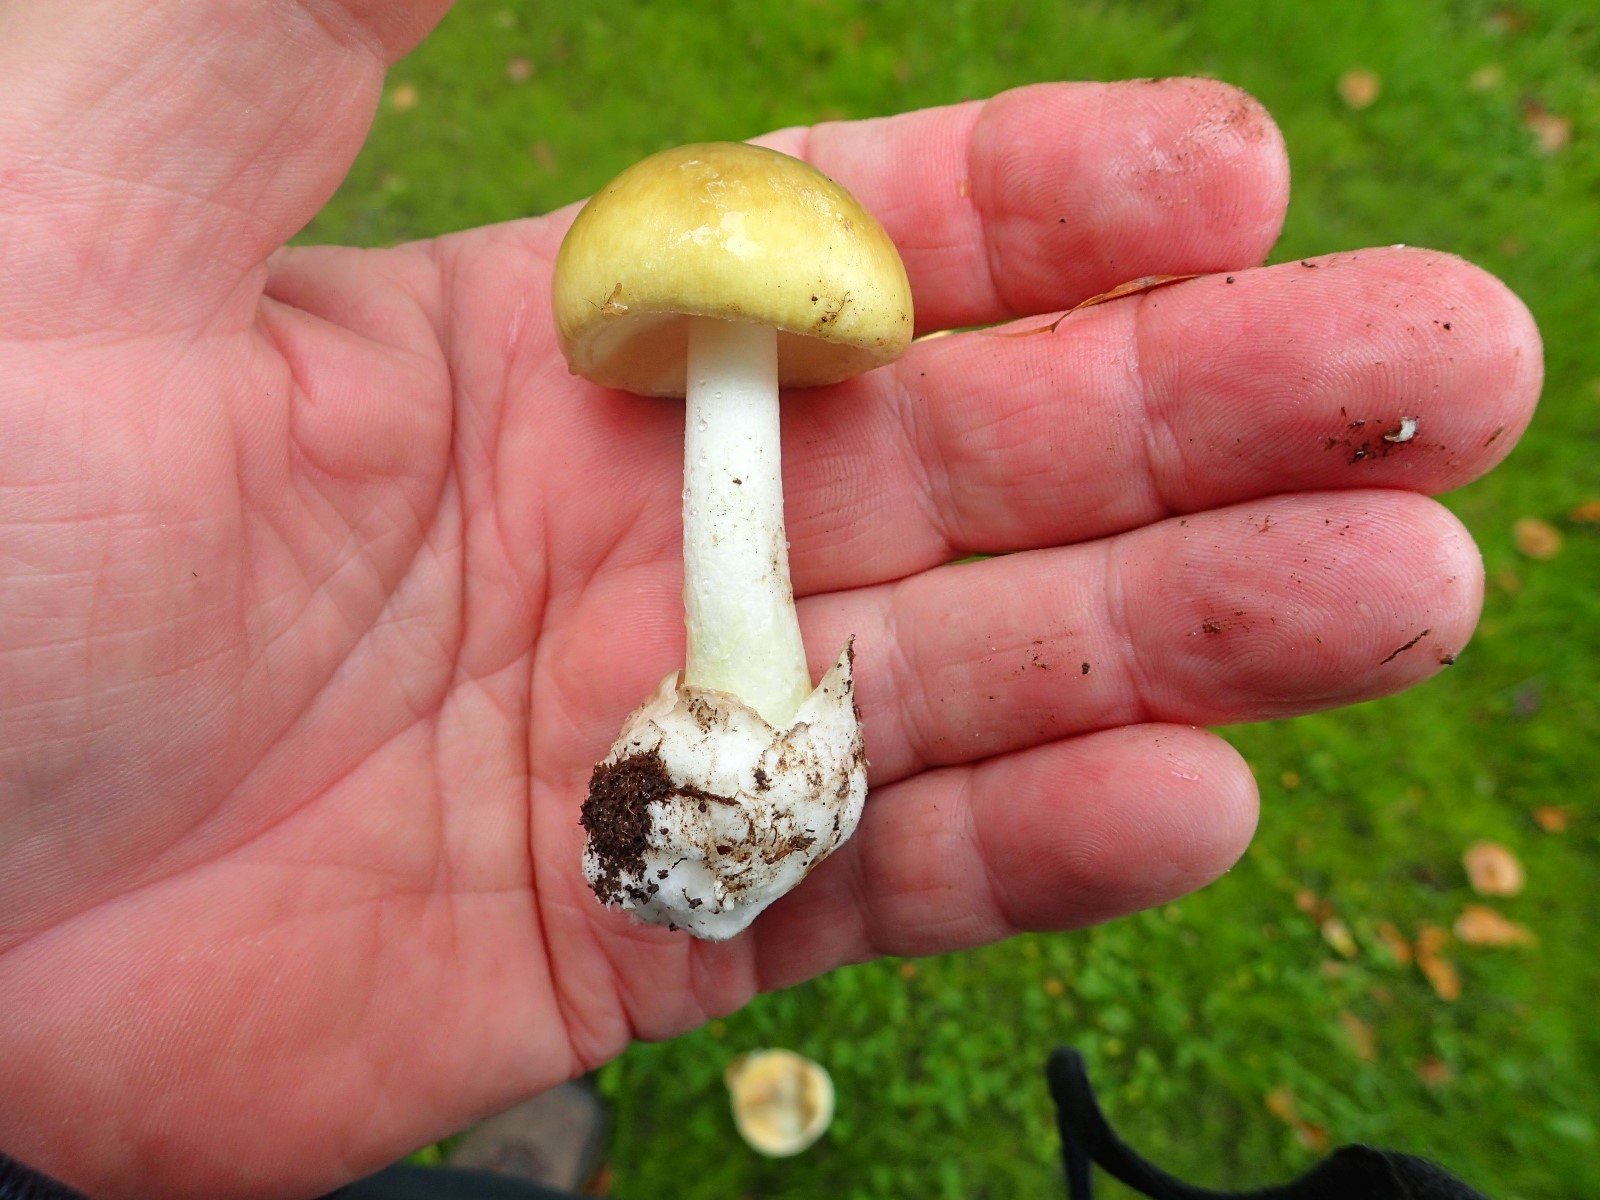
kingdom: Fungi
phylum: Basidiomycota
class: Agaricomycetes
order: Agaricales
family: Amanitaceae
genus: Amanita
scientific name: Amanita phalloides
